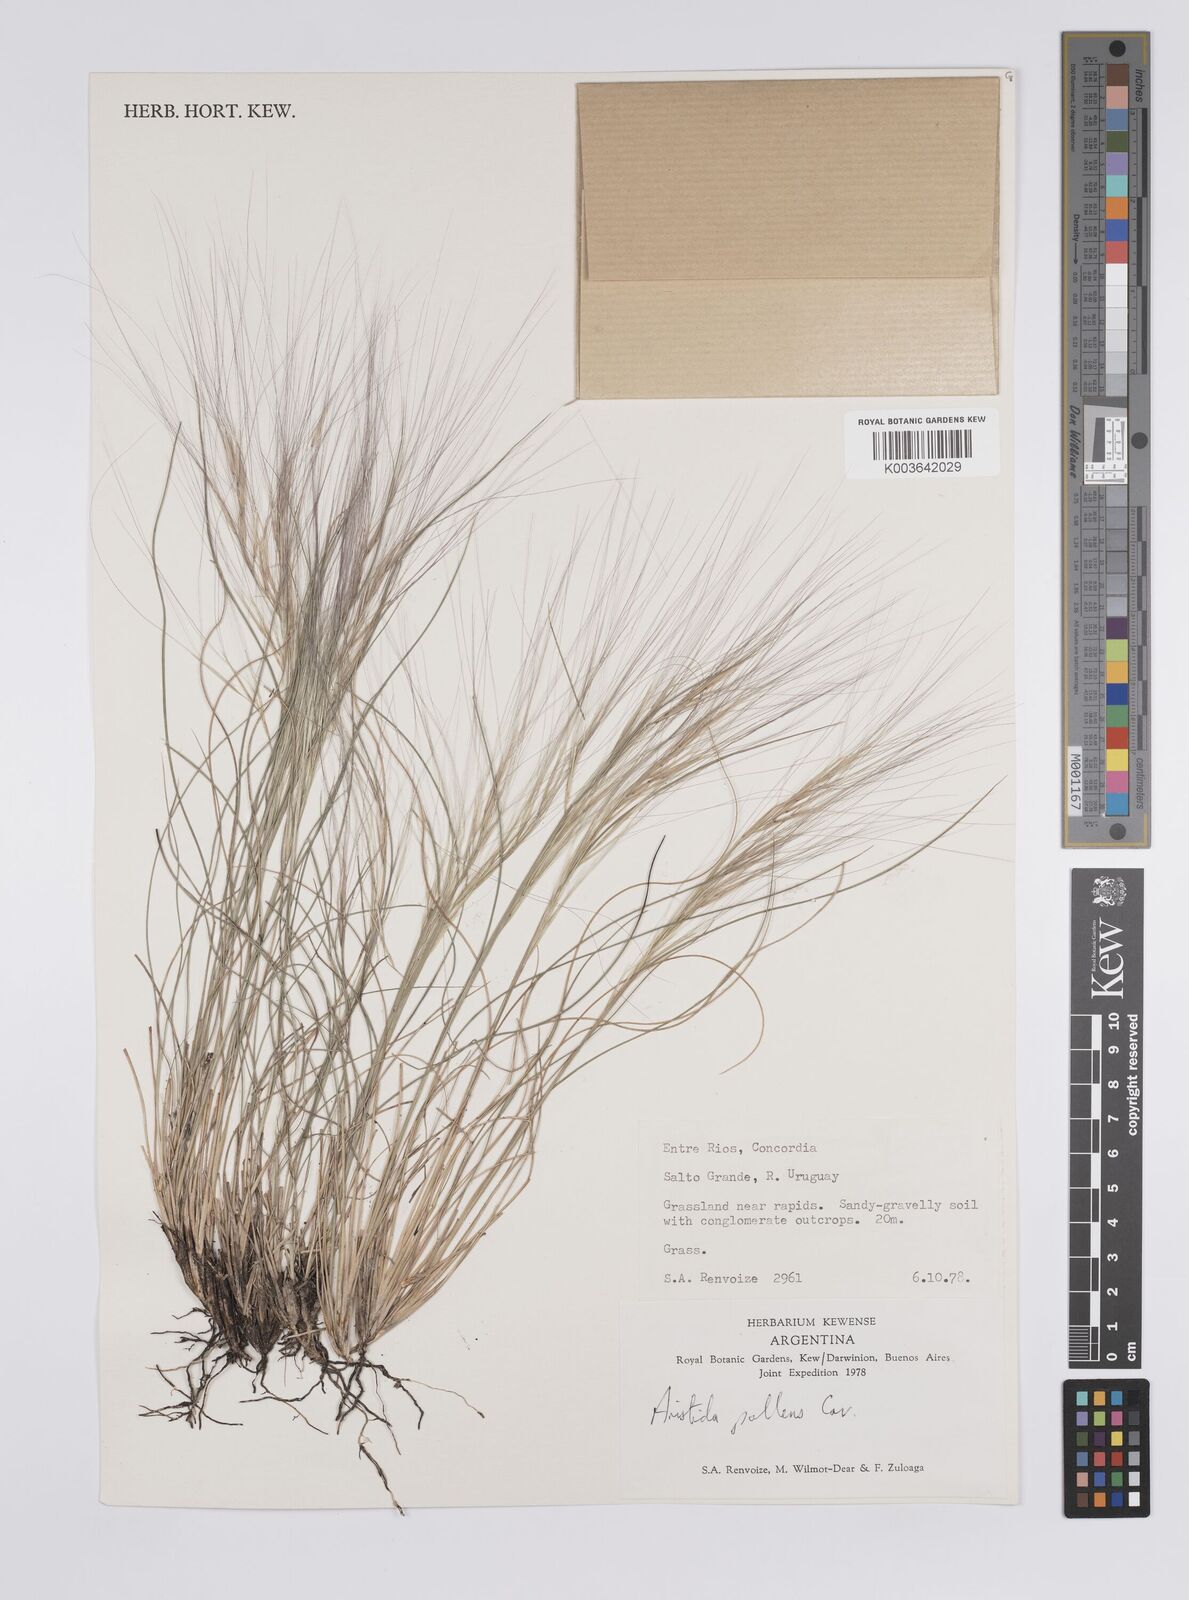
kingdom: Plantae
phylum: Tracheophyta
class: Liliopsida
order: Poales
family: Poaceae
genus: Aristida
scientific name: Aristida pallens
